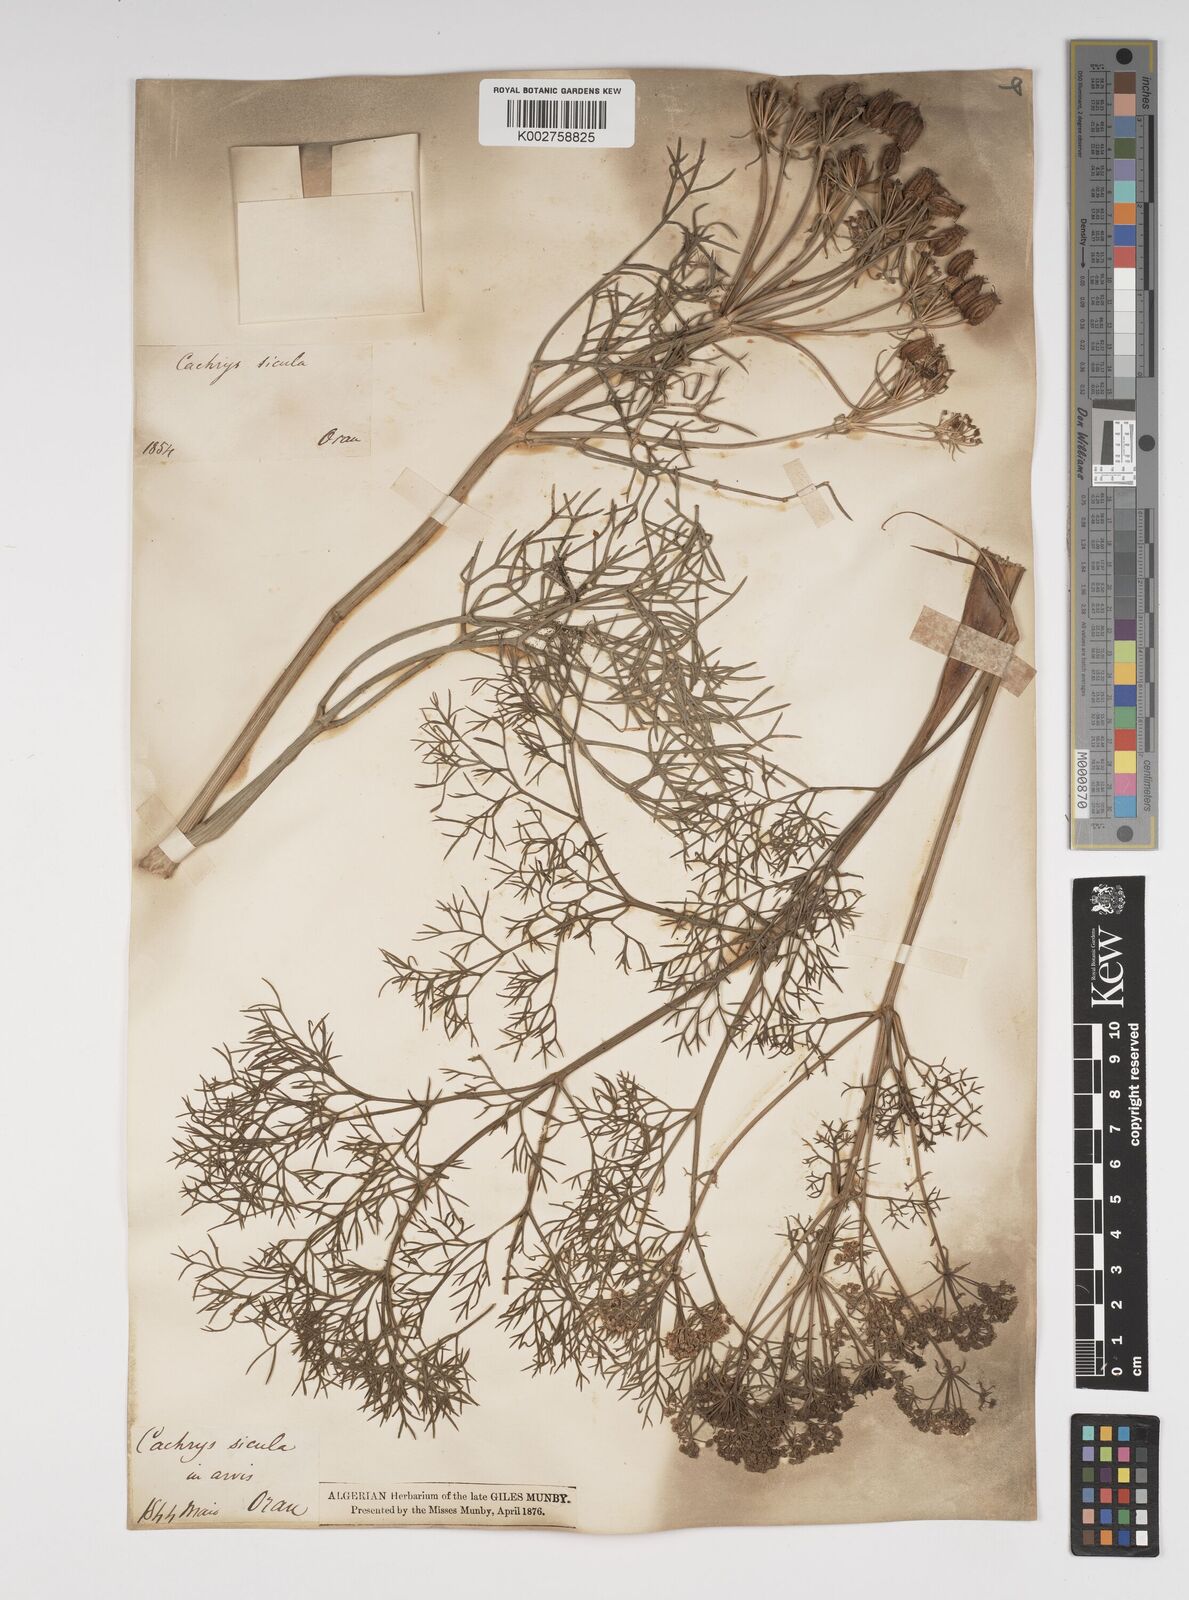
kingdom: Plantae
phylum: Tracheophyta
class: Magnoliopsida
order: Apiales
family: Apiaceae
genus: Cachrys
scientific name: Cachrys sicula
